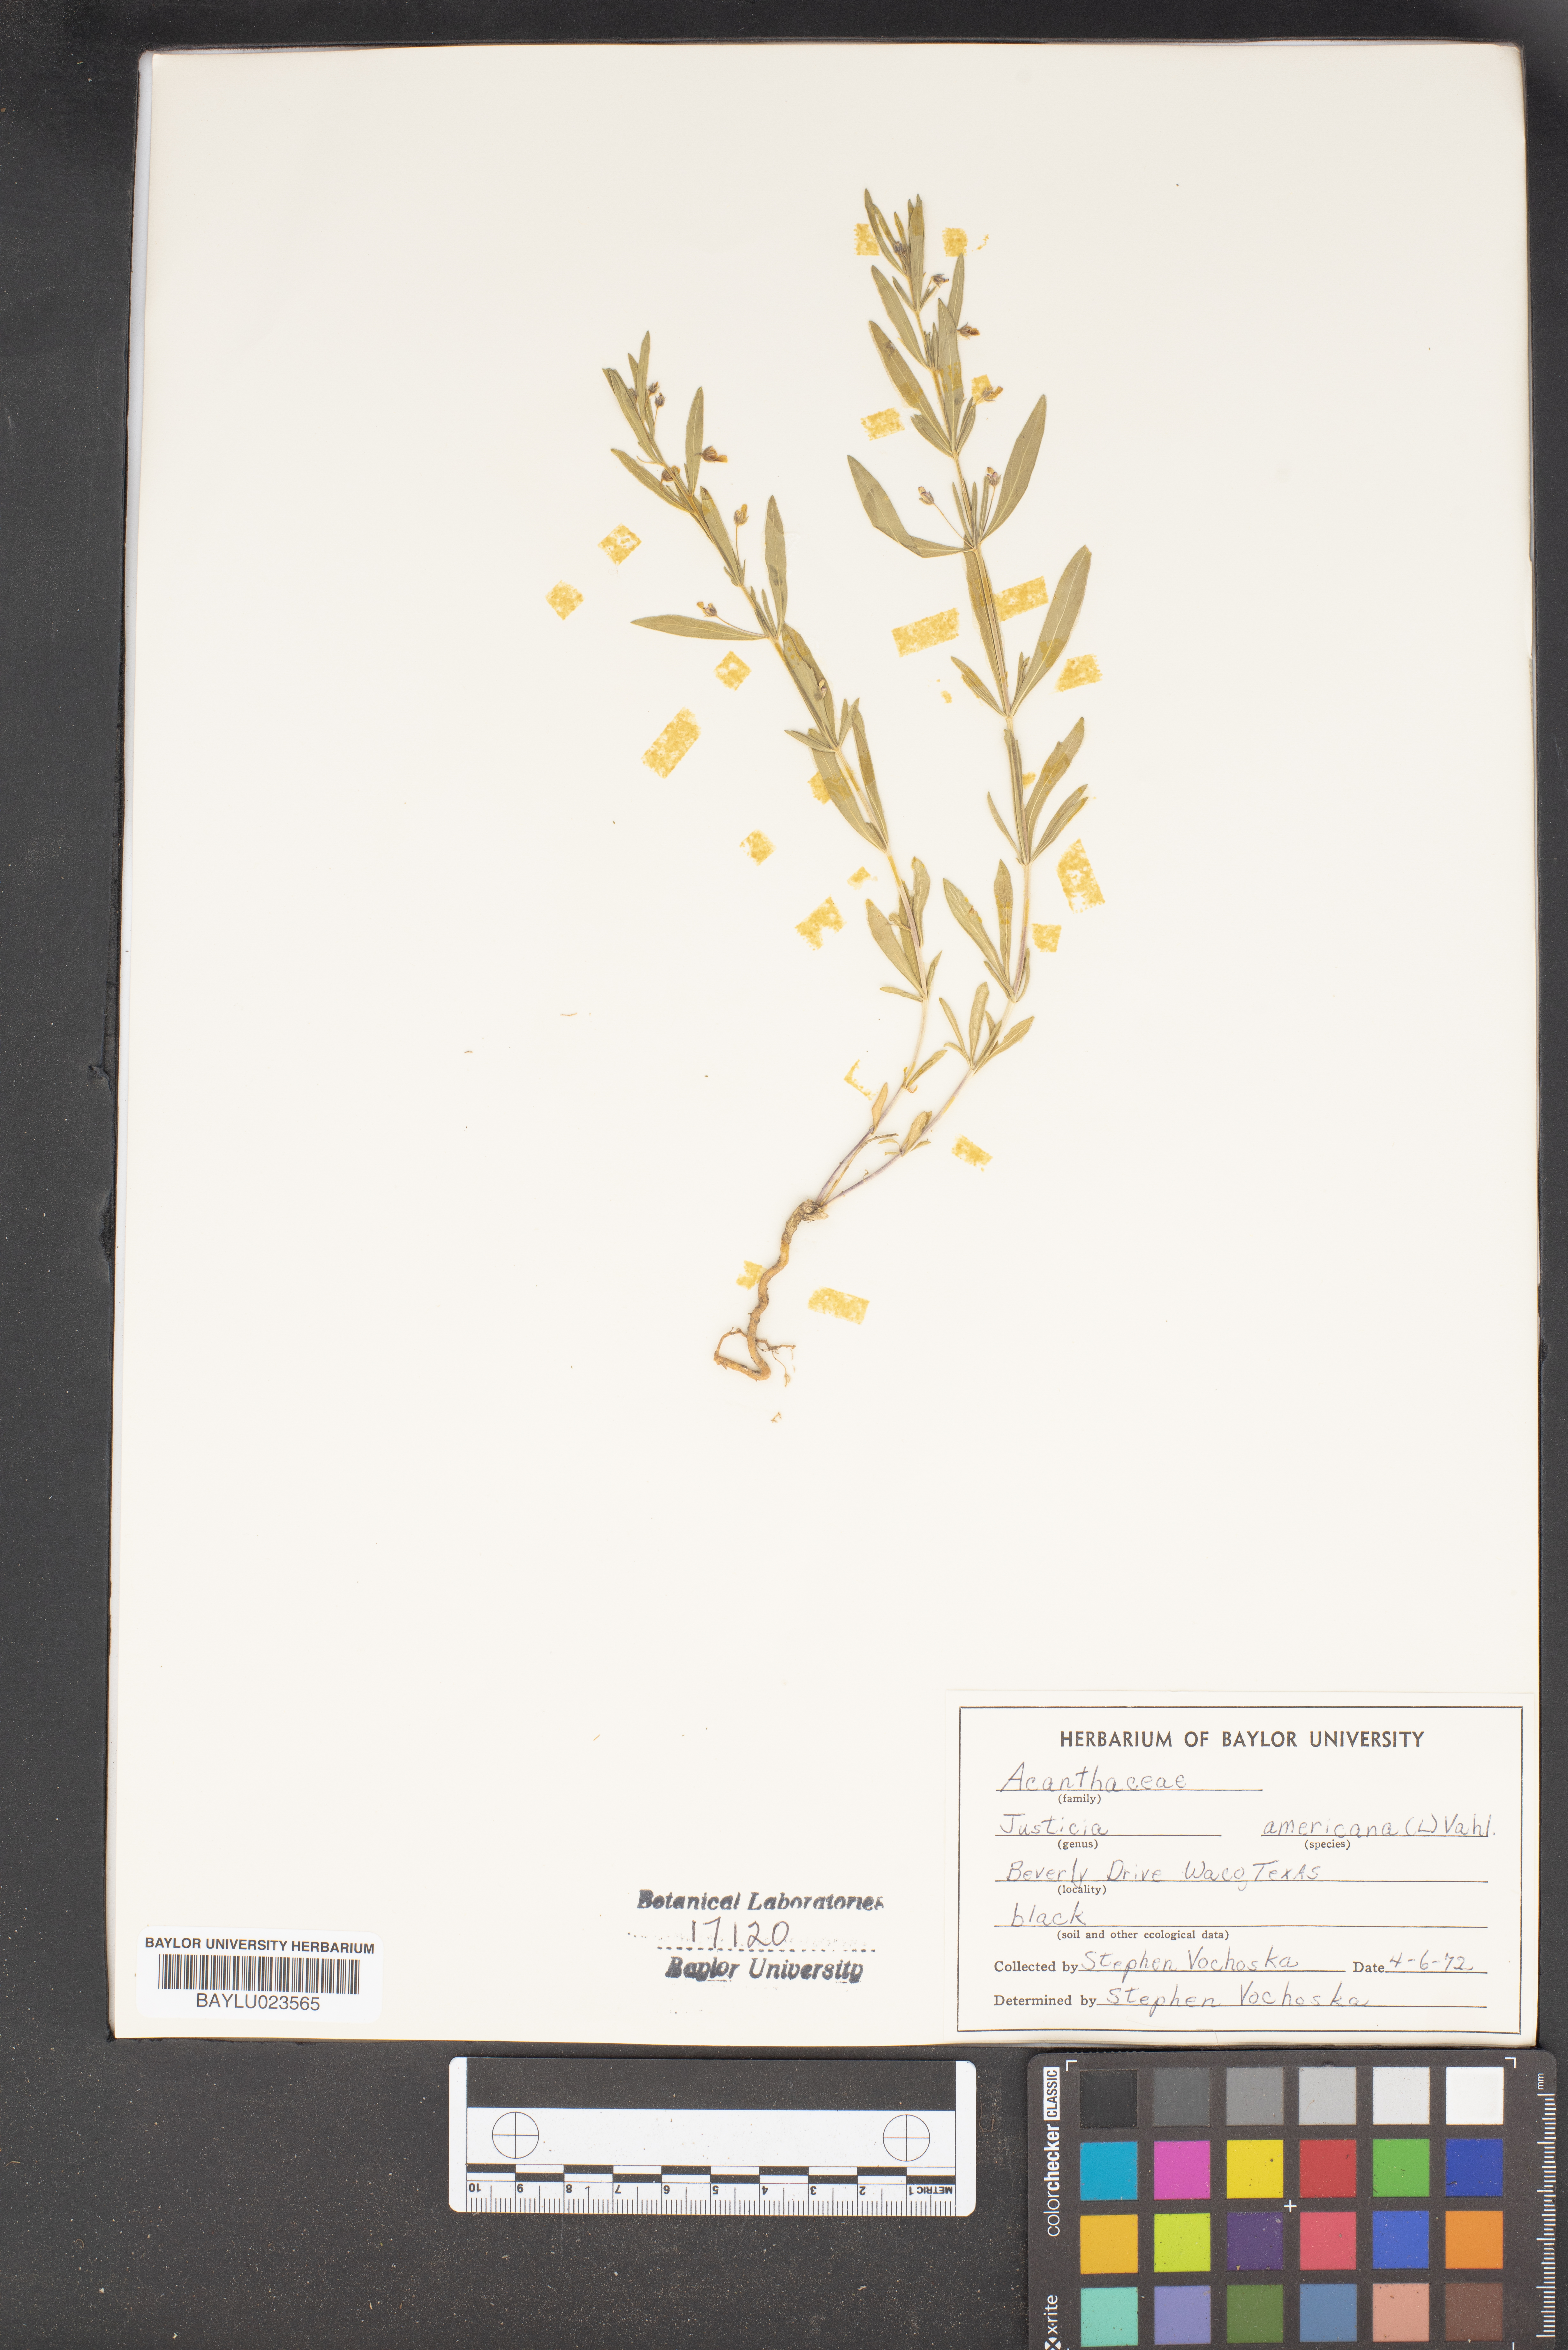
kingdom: Plantae
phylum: Tracheophyta
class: Magnoliopsida
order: Lamiales
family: Acanthaceae
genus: Dianthera
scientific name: Dianthera americana
